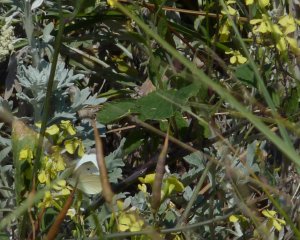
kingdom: Animalia
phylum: Arthropoda
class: Insecta
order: Lepidoptera
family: Pieridae
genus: Pieris
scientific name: Pieris rapae
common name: Cabbage White
